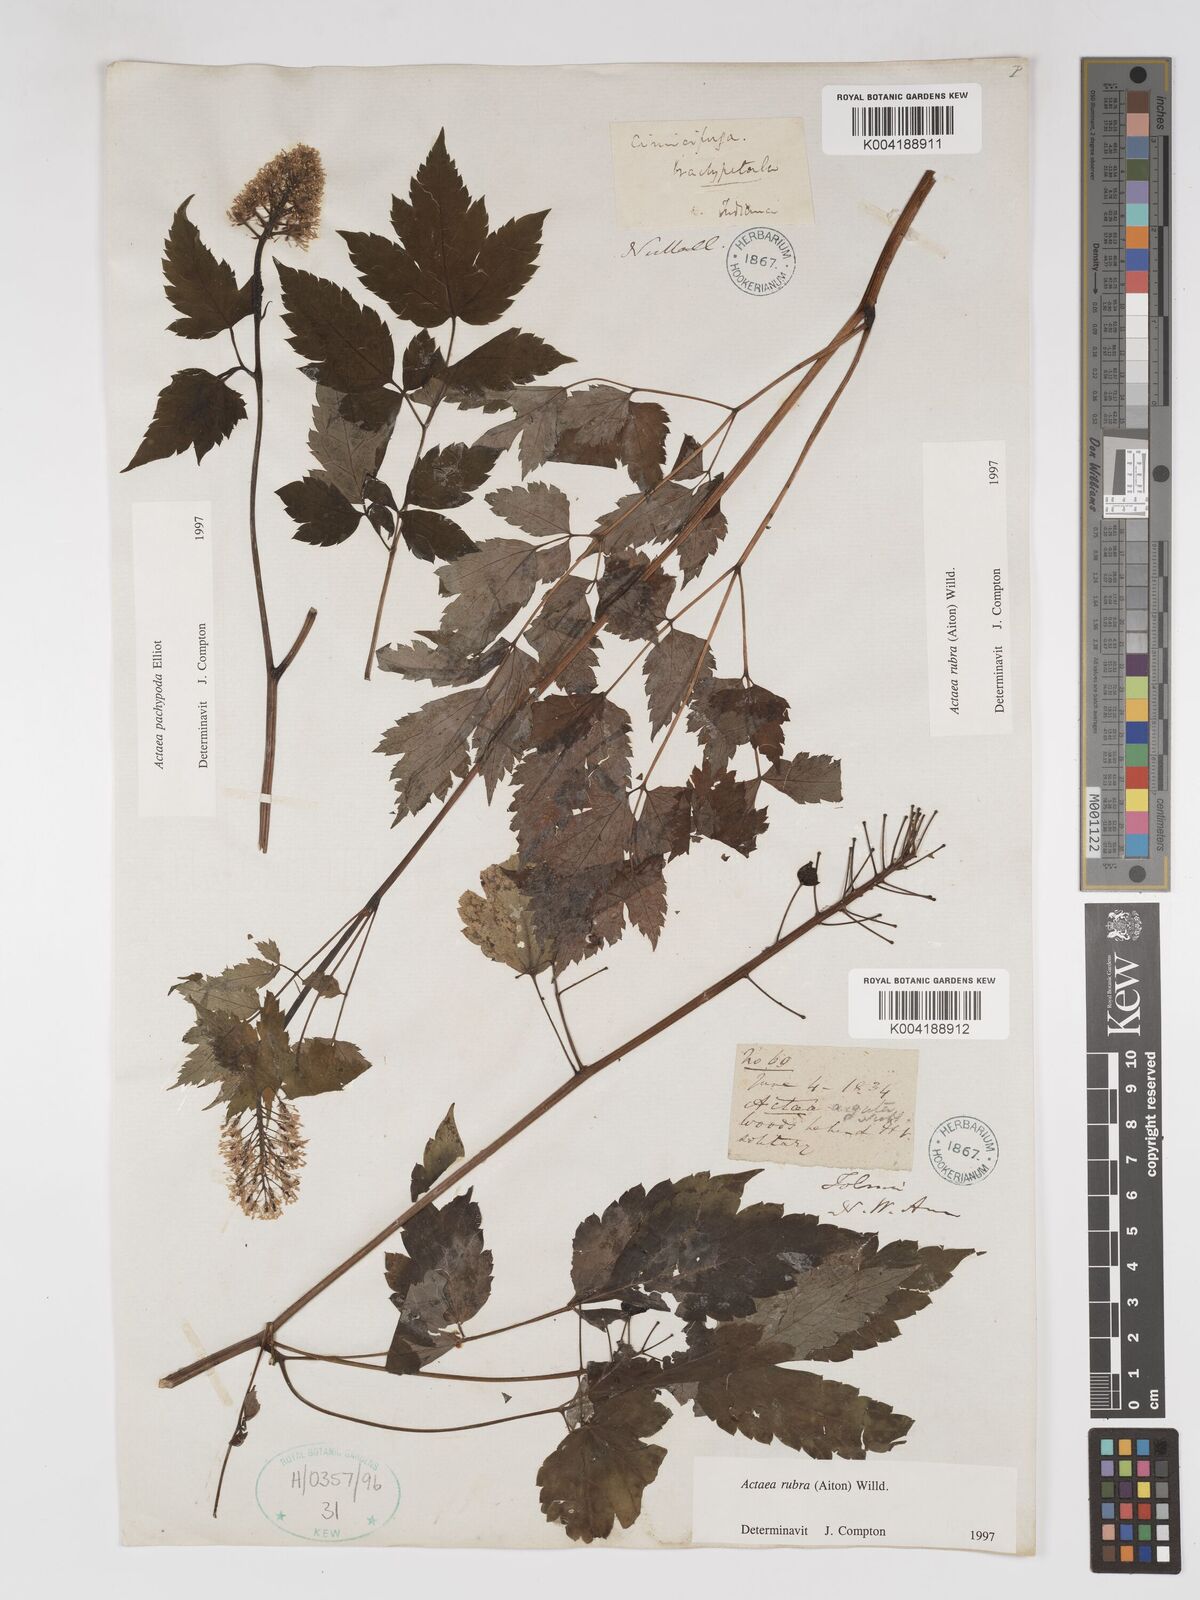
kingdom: Plantae
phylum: Tracheophyta
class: Magnoliopsida
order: Ranunculales
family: Ranunculaceae
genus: Actaea
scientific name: Actaea rubra
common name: Red baneberry
